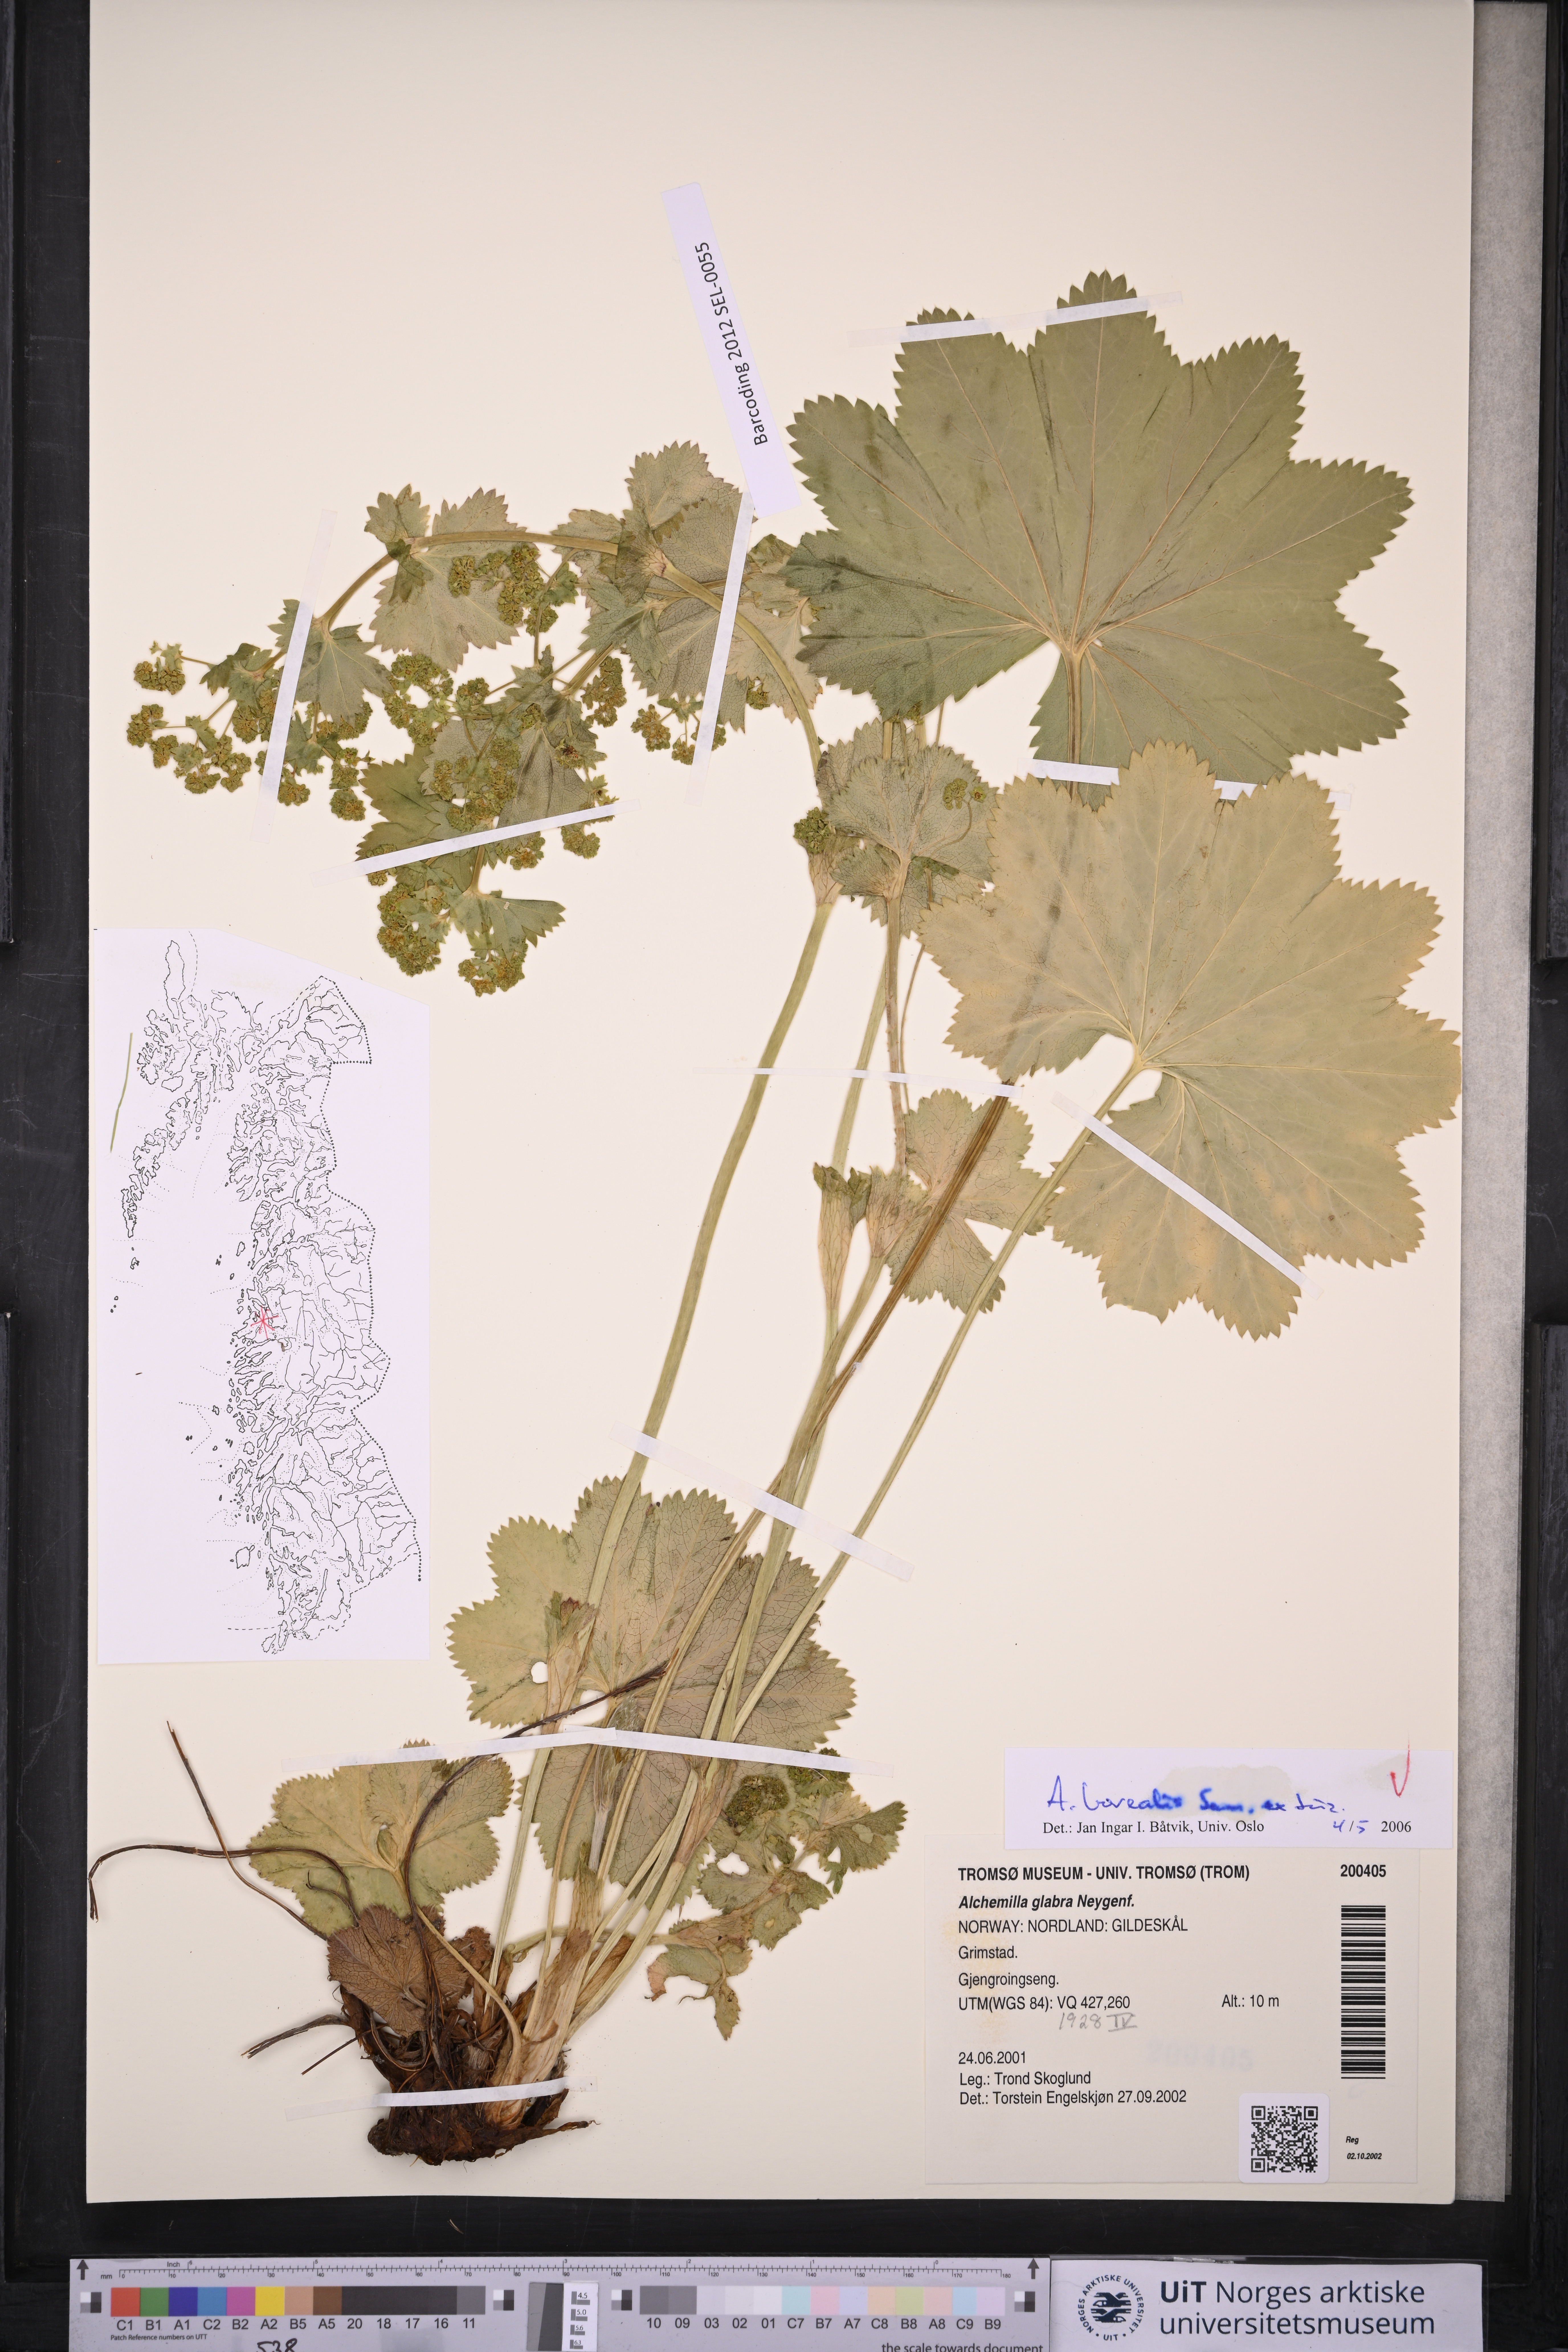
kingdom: Plantae
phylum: Tracheophyta
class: Magnoliopsida
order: Rosales
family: Rosaceae
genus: Alchemilla
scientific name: Alchemilla borealis
